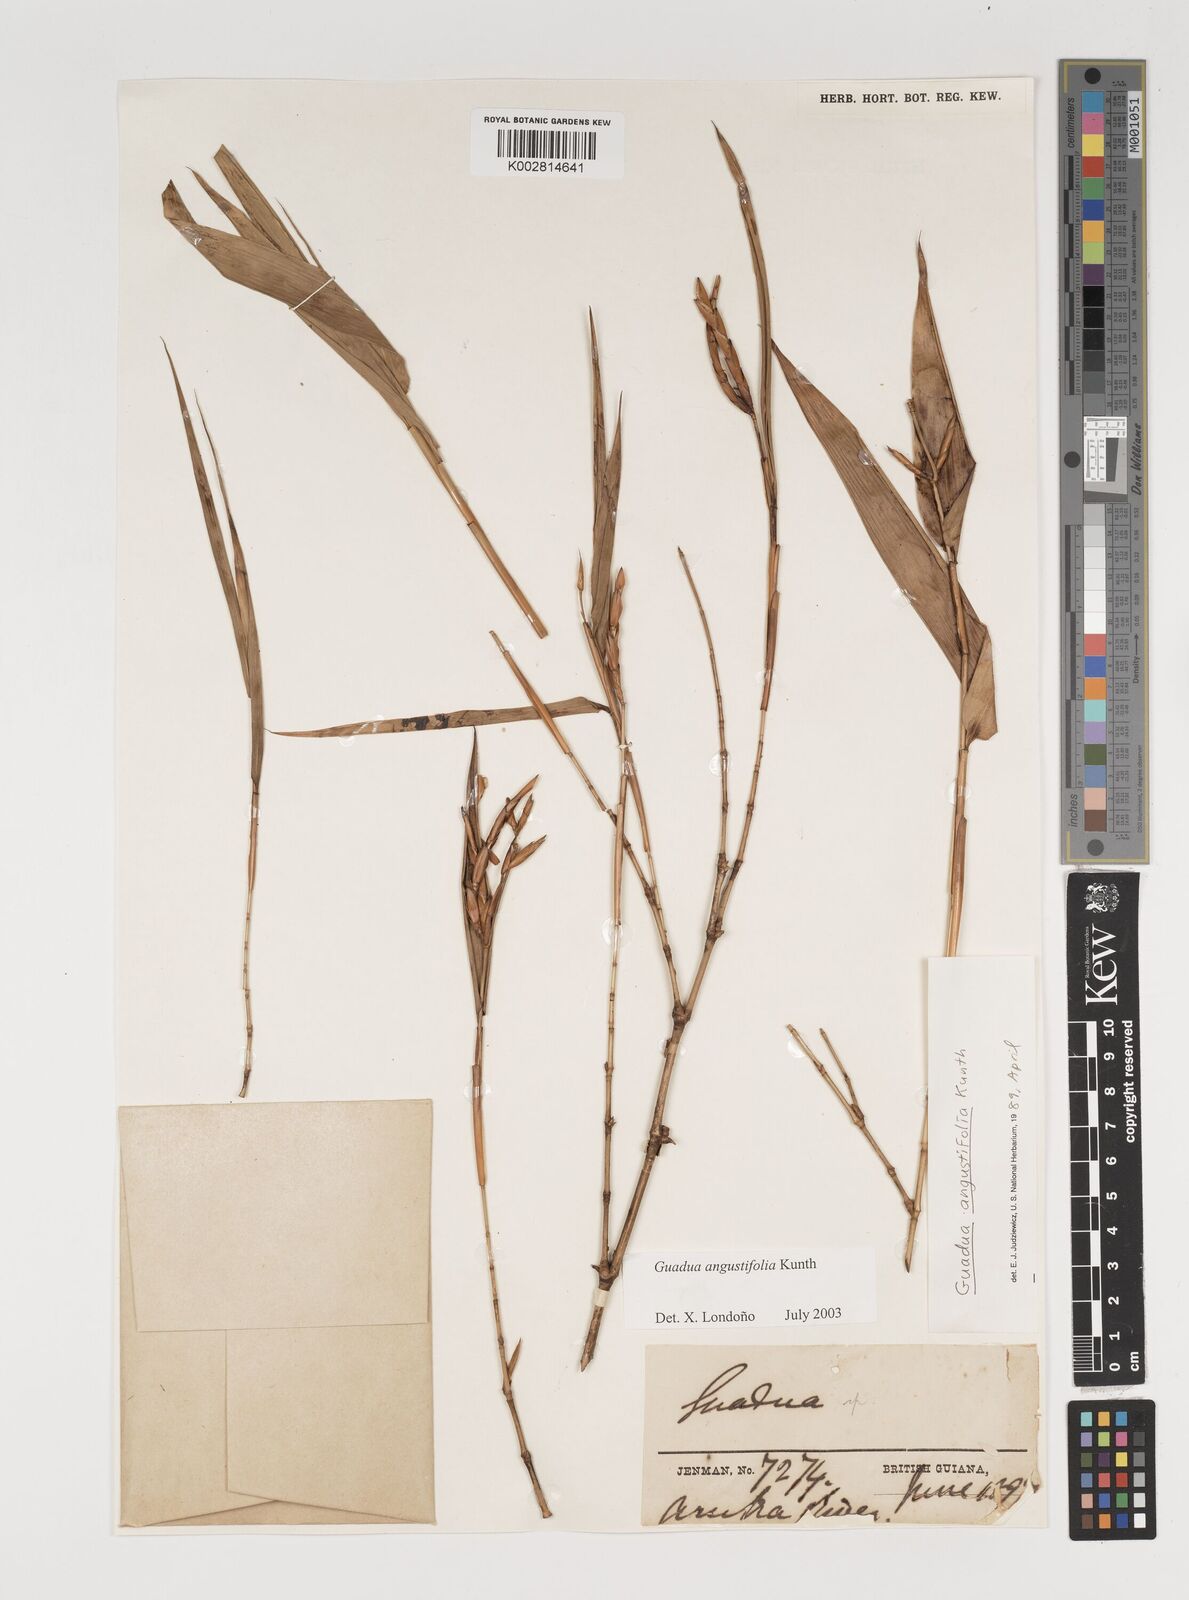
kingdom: Plantae
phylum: Tracheophyta
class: Liliopsida
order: Poales
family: Poaceae
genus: Guadua
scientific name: Guadua angustifolia
